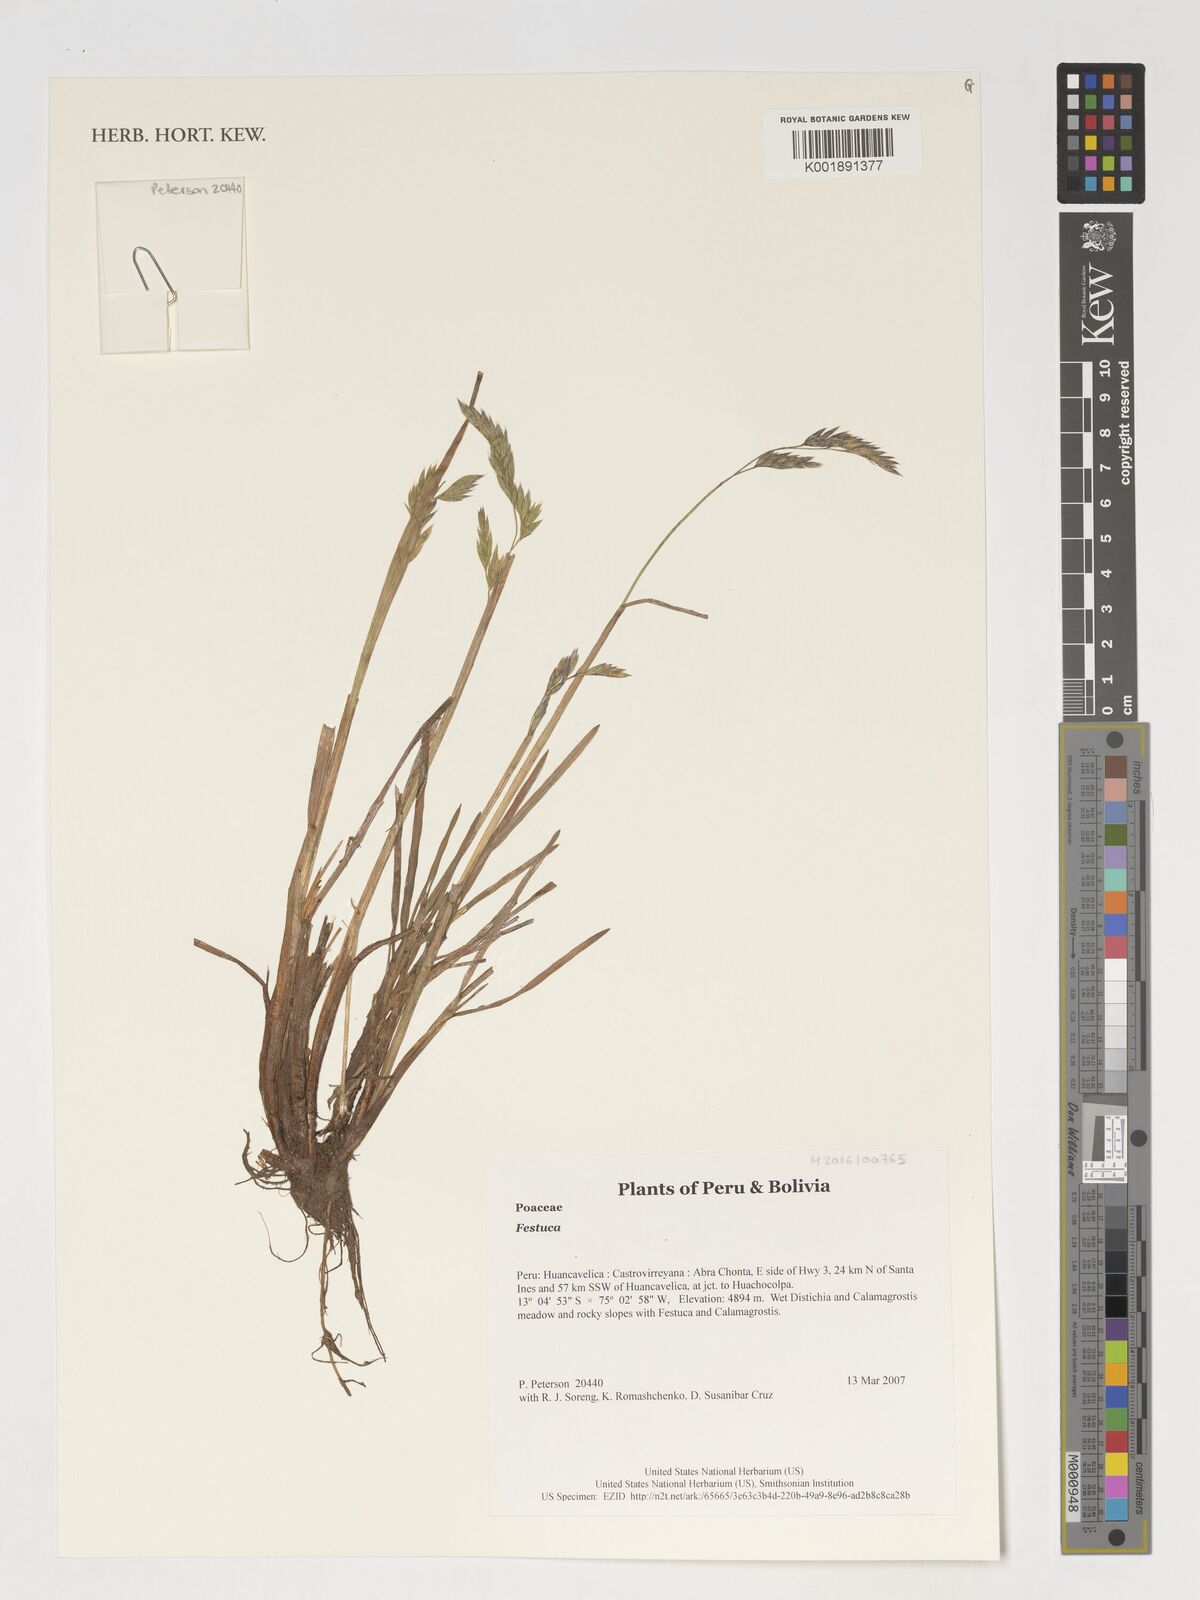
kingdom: Plantae
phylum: Tracheophyta
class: Liliopsida
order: Poales
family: Poaceae
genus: Festuca
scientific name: Festuca
